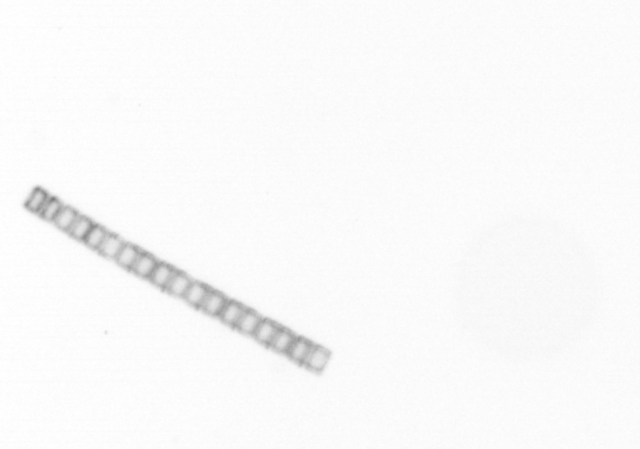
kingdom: Chromista
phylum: Ochrophyta
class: Bacillariophyceae
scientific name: Bacillariophyceae
